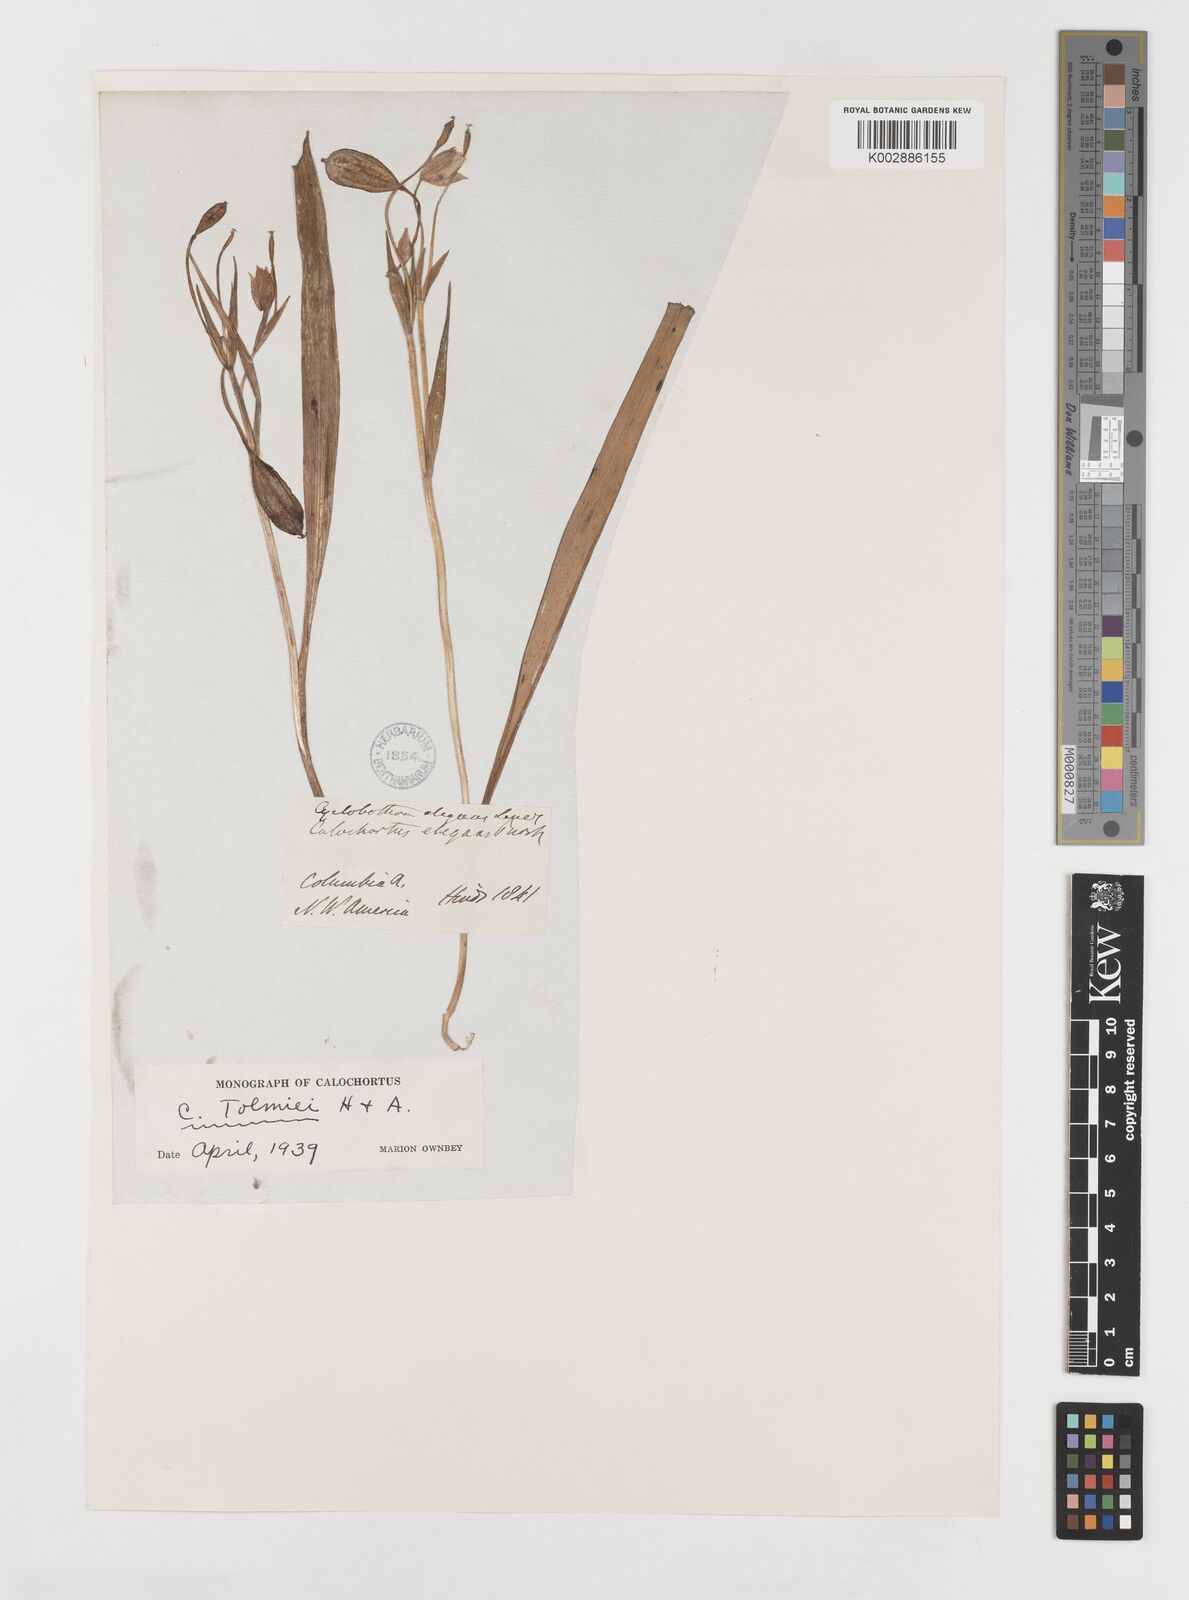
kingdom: Plantae
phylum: Tracheophyta
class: Liliopsida
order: Liliales
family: Liliaceae
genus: Calochortus
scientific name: Calochortus tolmiei
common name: Pussy-ears
